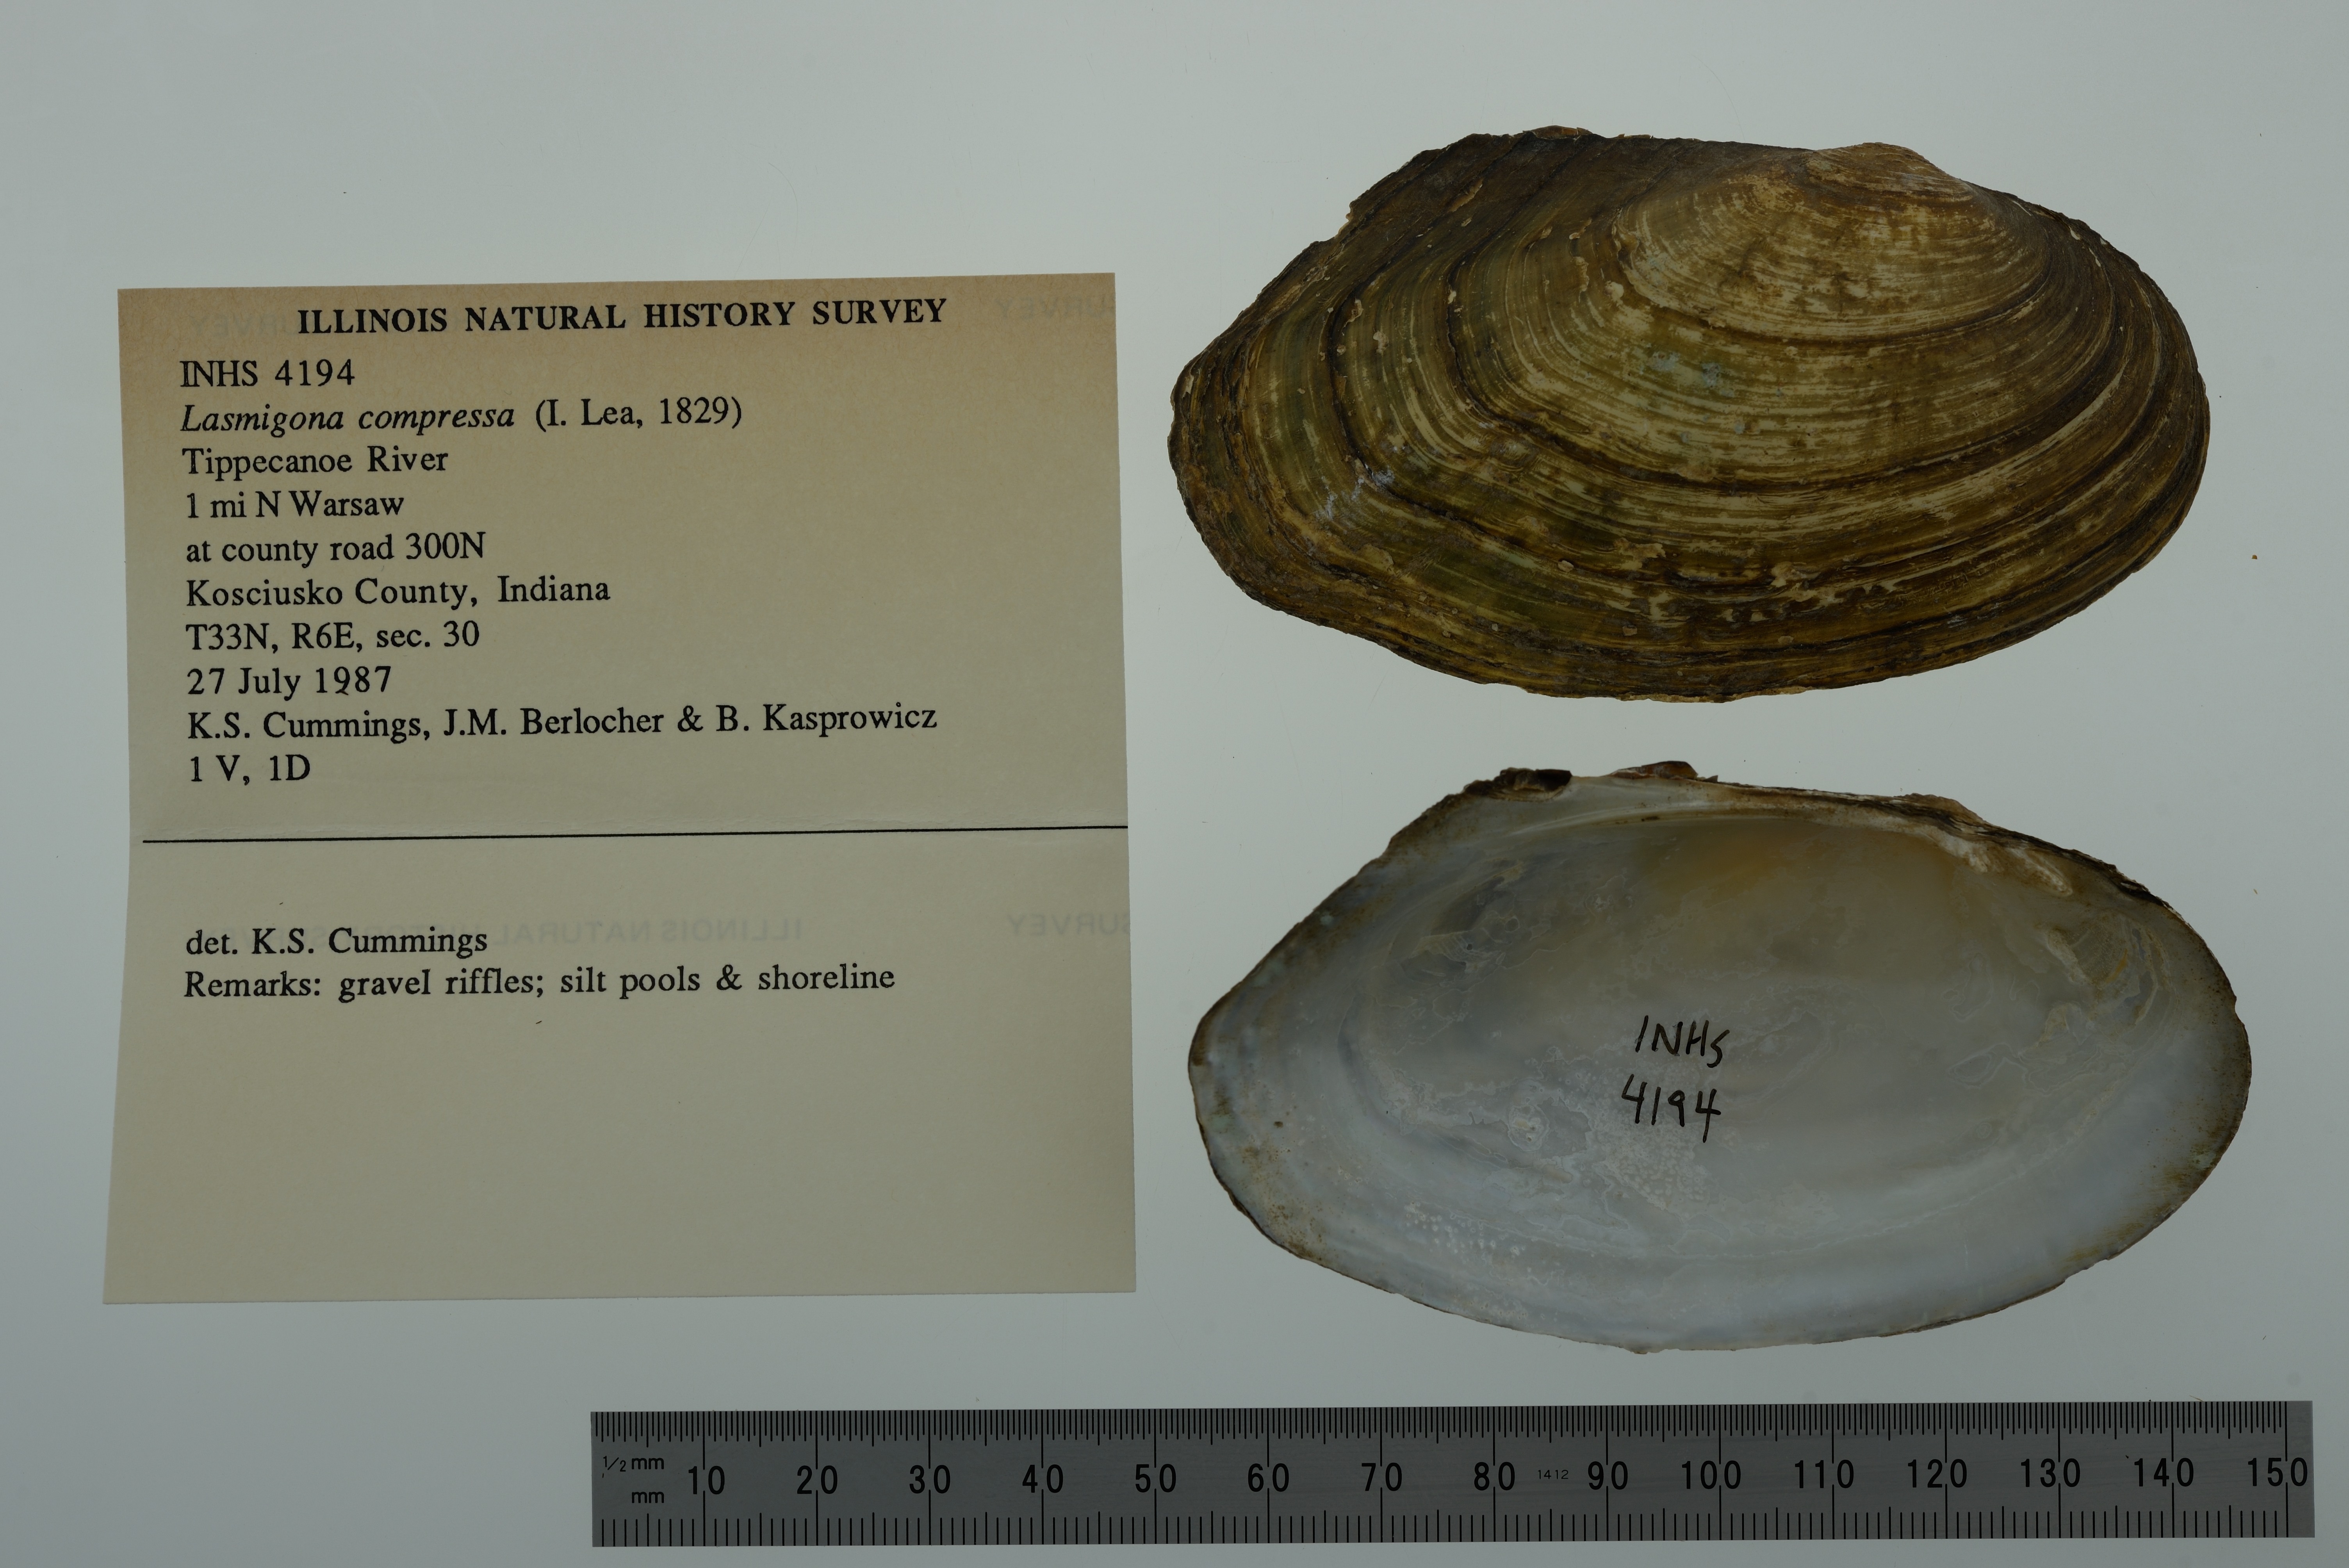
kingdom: Animalia
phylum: Mollusca
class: Bivalvia
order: Unionida
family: Unionidae
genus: Lasmigona
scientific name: Lasmigona compressa
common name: Creek heelsplitter
